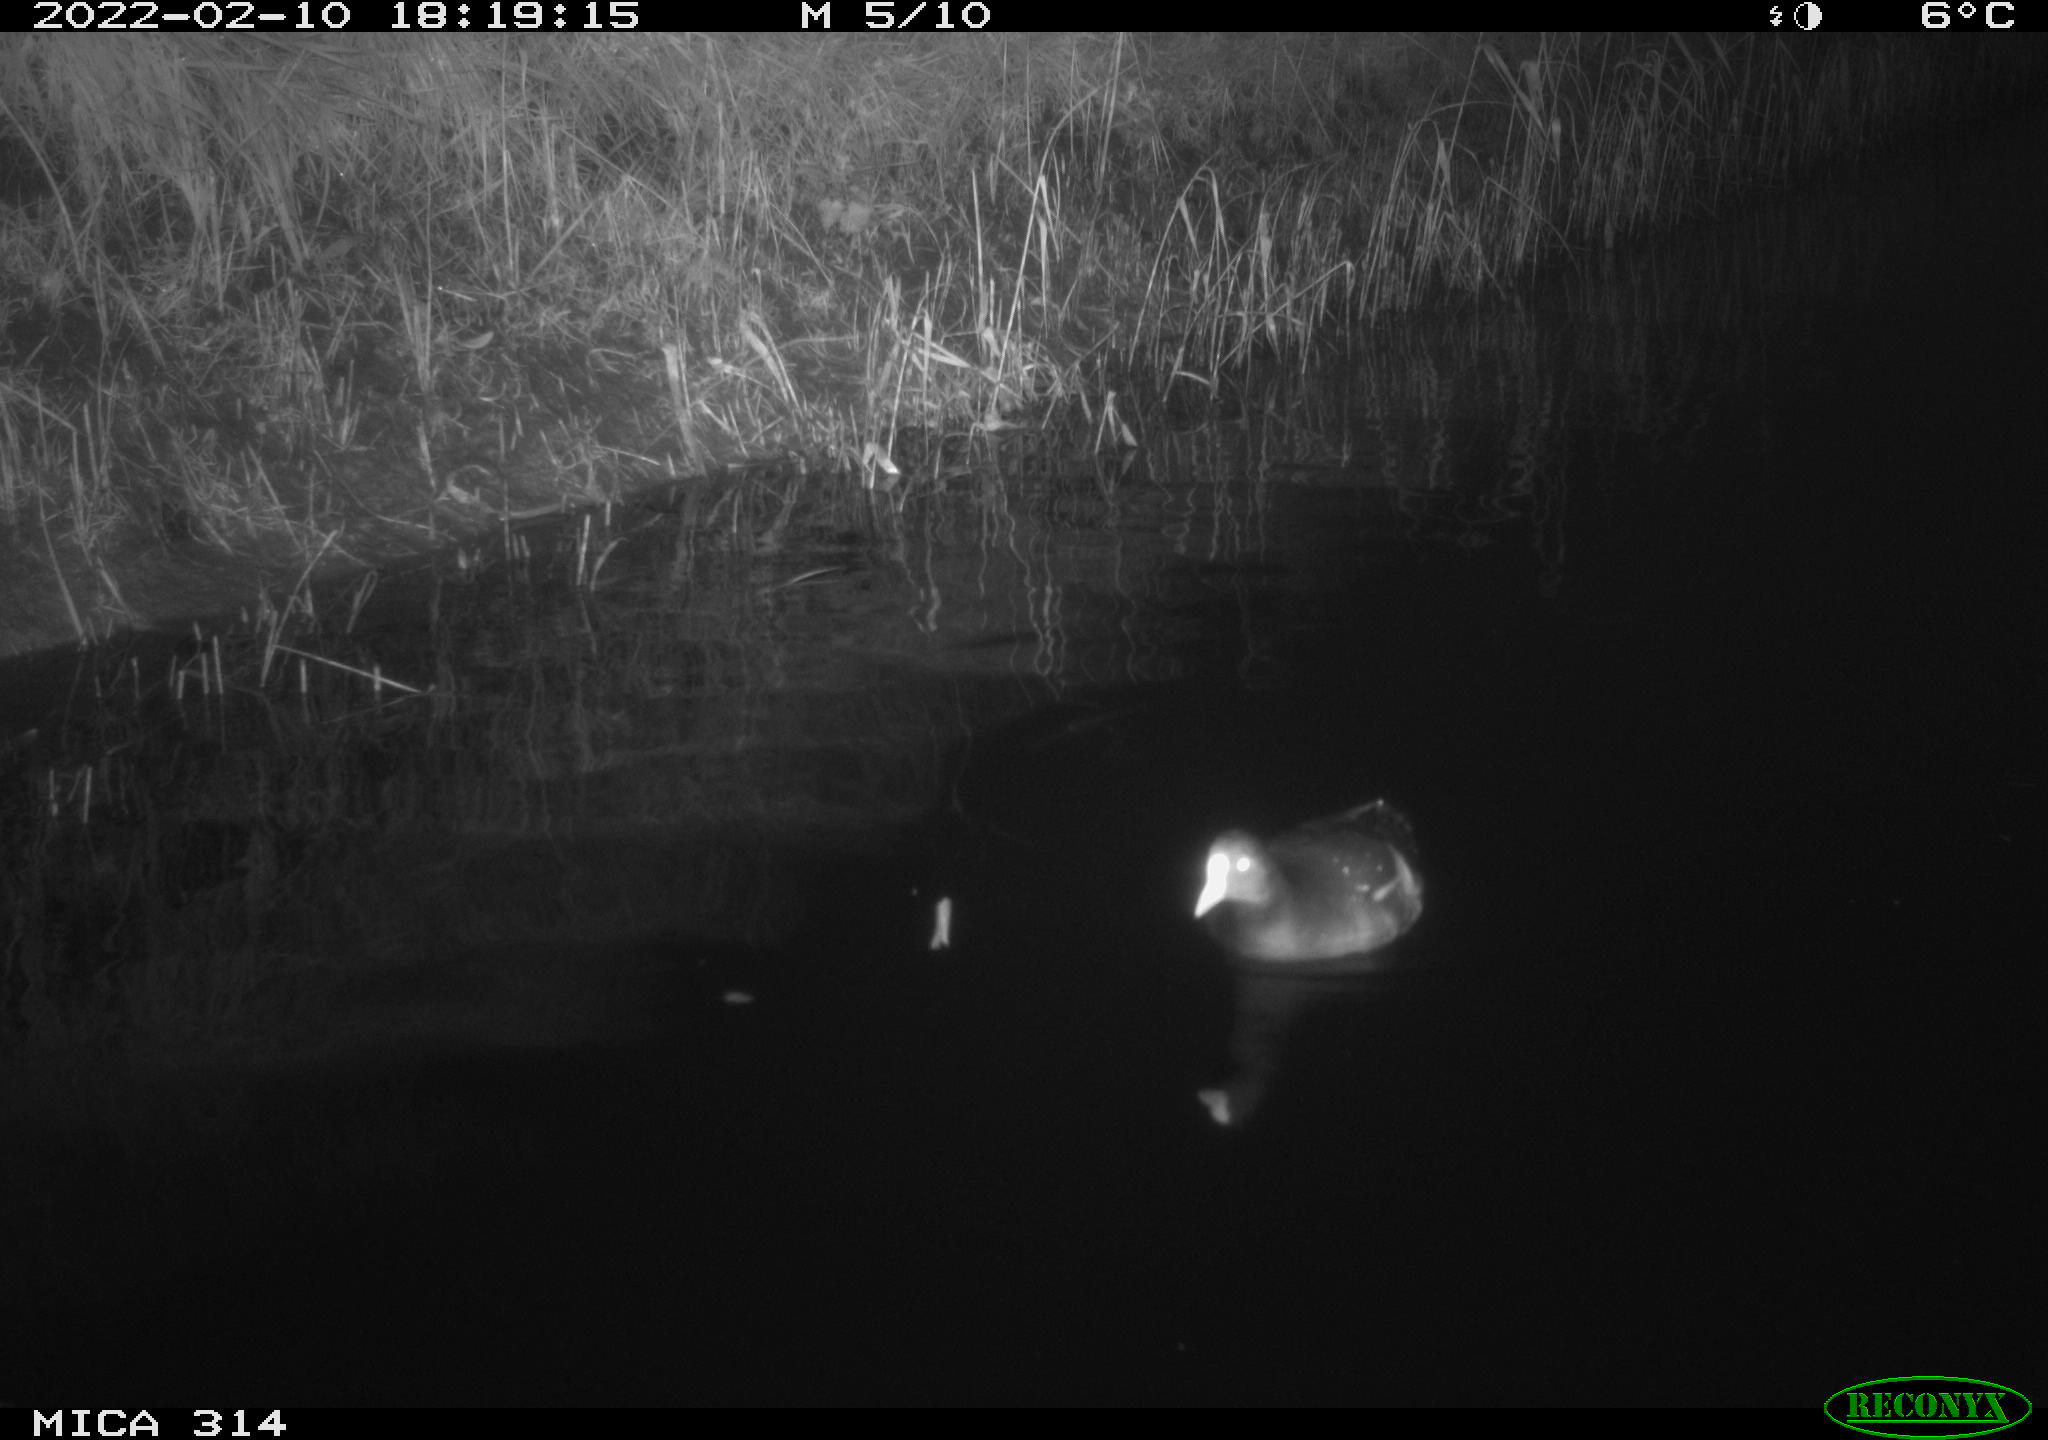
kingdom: Animalia
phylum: Chordata
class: Aves
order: Gruiformes
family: Rallidae
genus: Gallinula
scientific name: Gallinula chloropus
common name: Common moorhen
